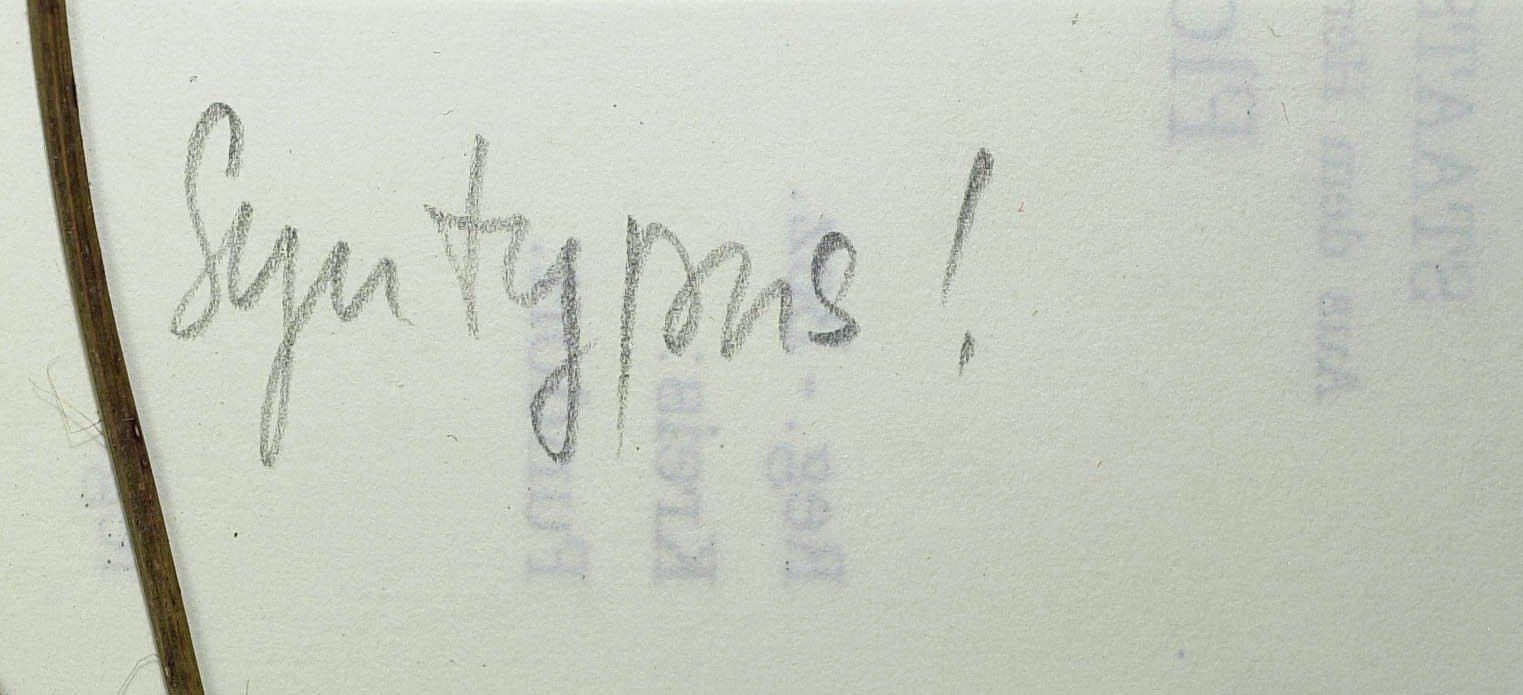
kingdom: Plantae
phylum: Tracheophyta
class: Magnoliopsida
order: Asterales
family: Asteraceae
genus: Hieracium
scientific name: Hieracium bupleuroides
